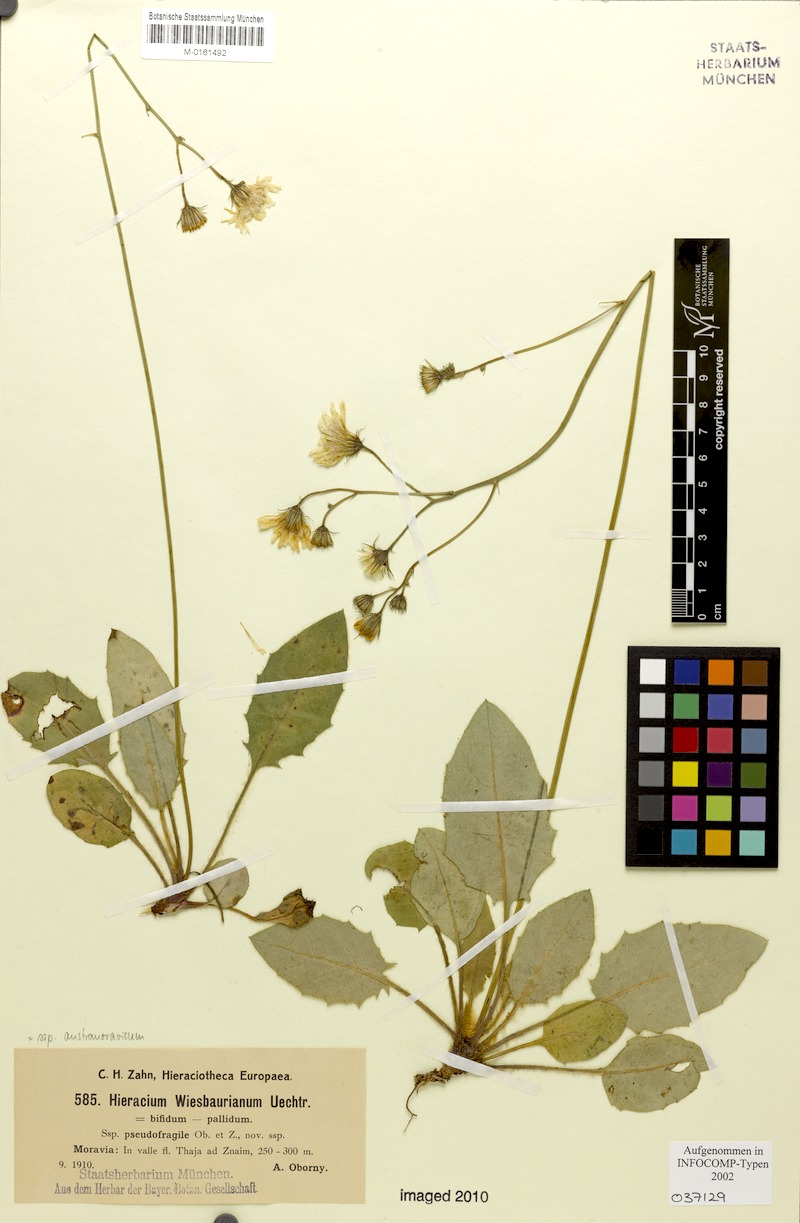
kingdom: Plantae
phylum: Tracheophyta
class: Magnoliopsida
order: Asterales
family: Asteraceae
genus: Hieracium
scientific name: Hieracium hypochoeroides
